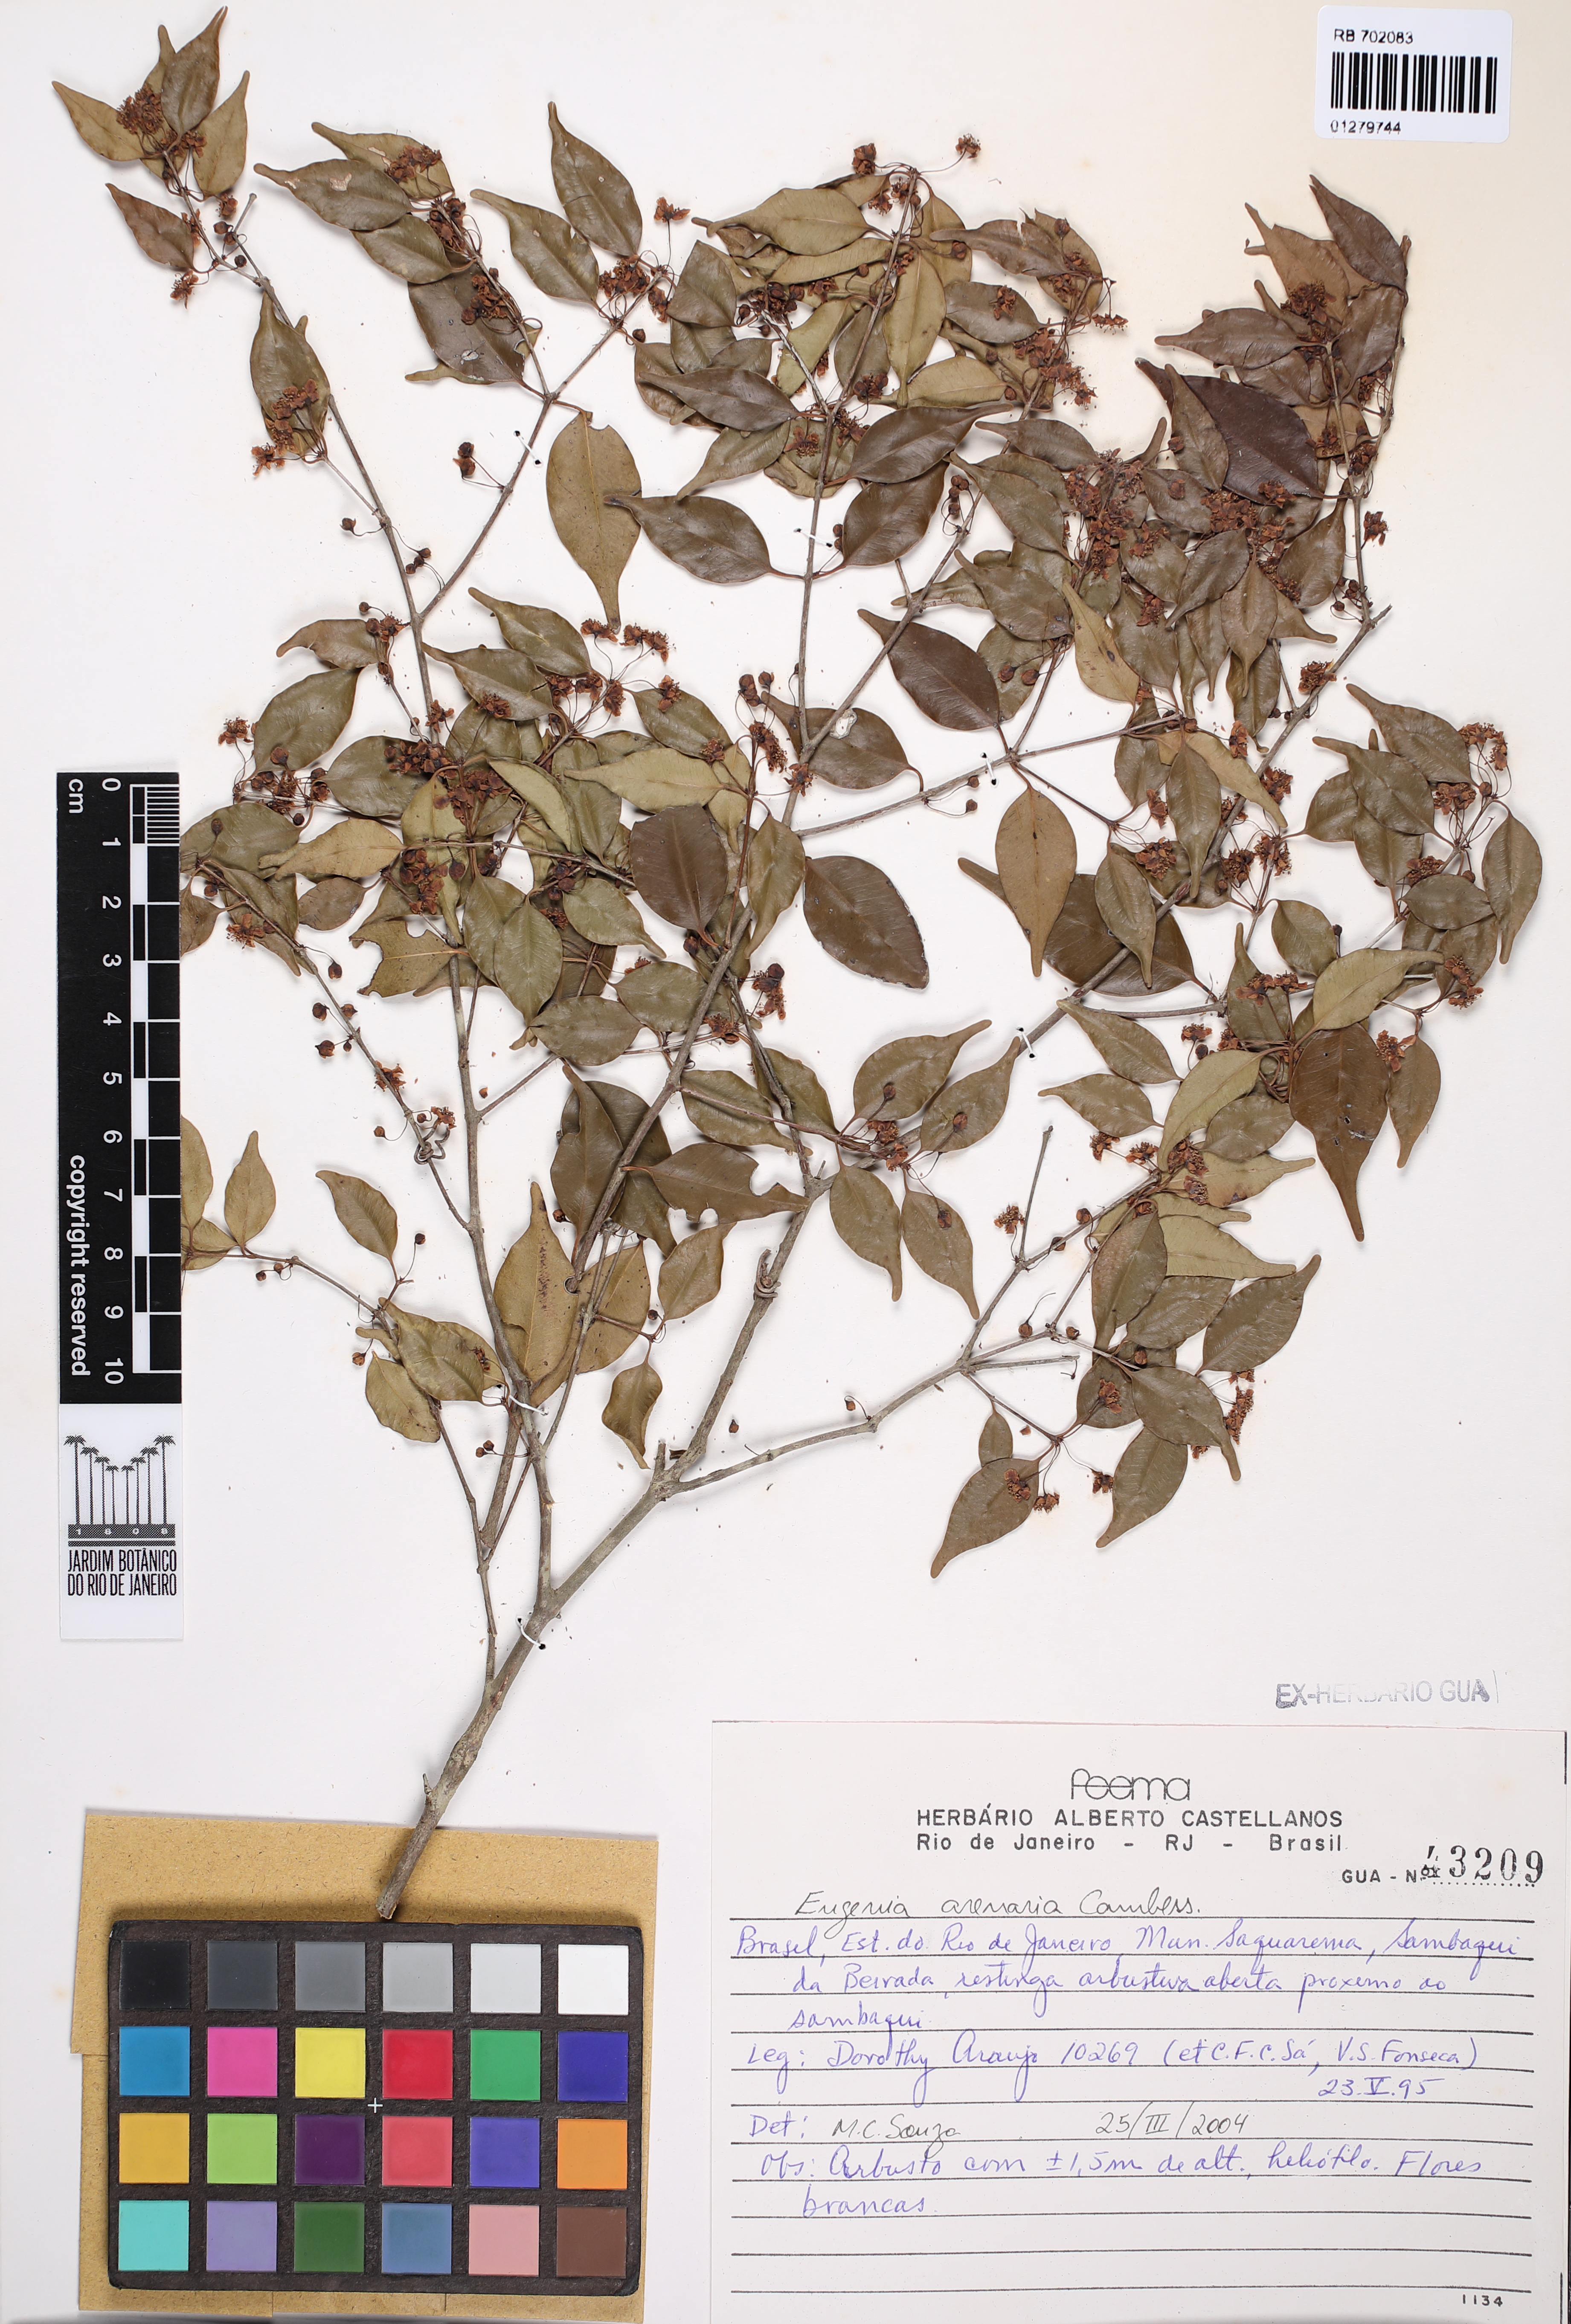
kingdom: Plantae
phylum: Tracheophyta
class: Magnoliopsida
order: Myrtales
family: Myrtaceae
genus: Eugenia
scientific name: Eugenia arenaria
